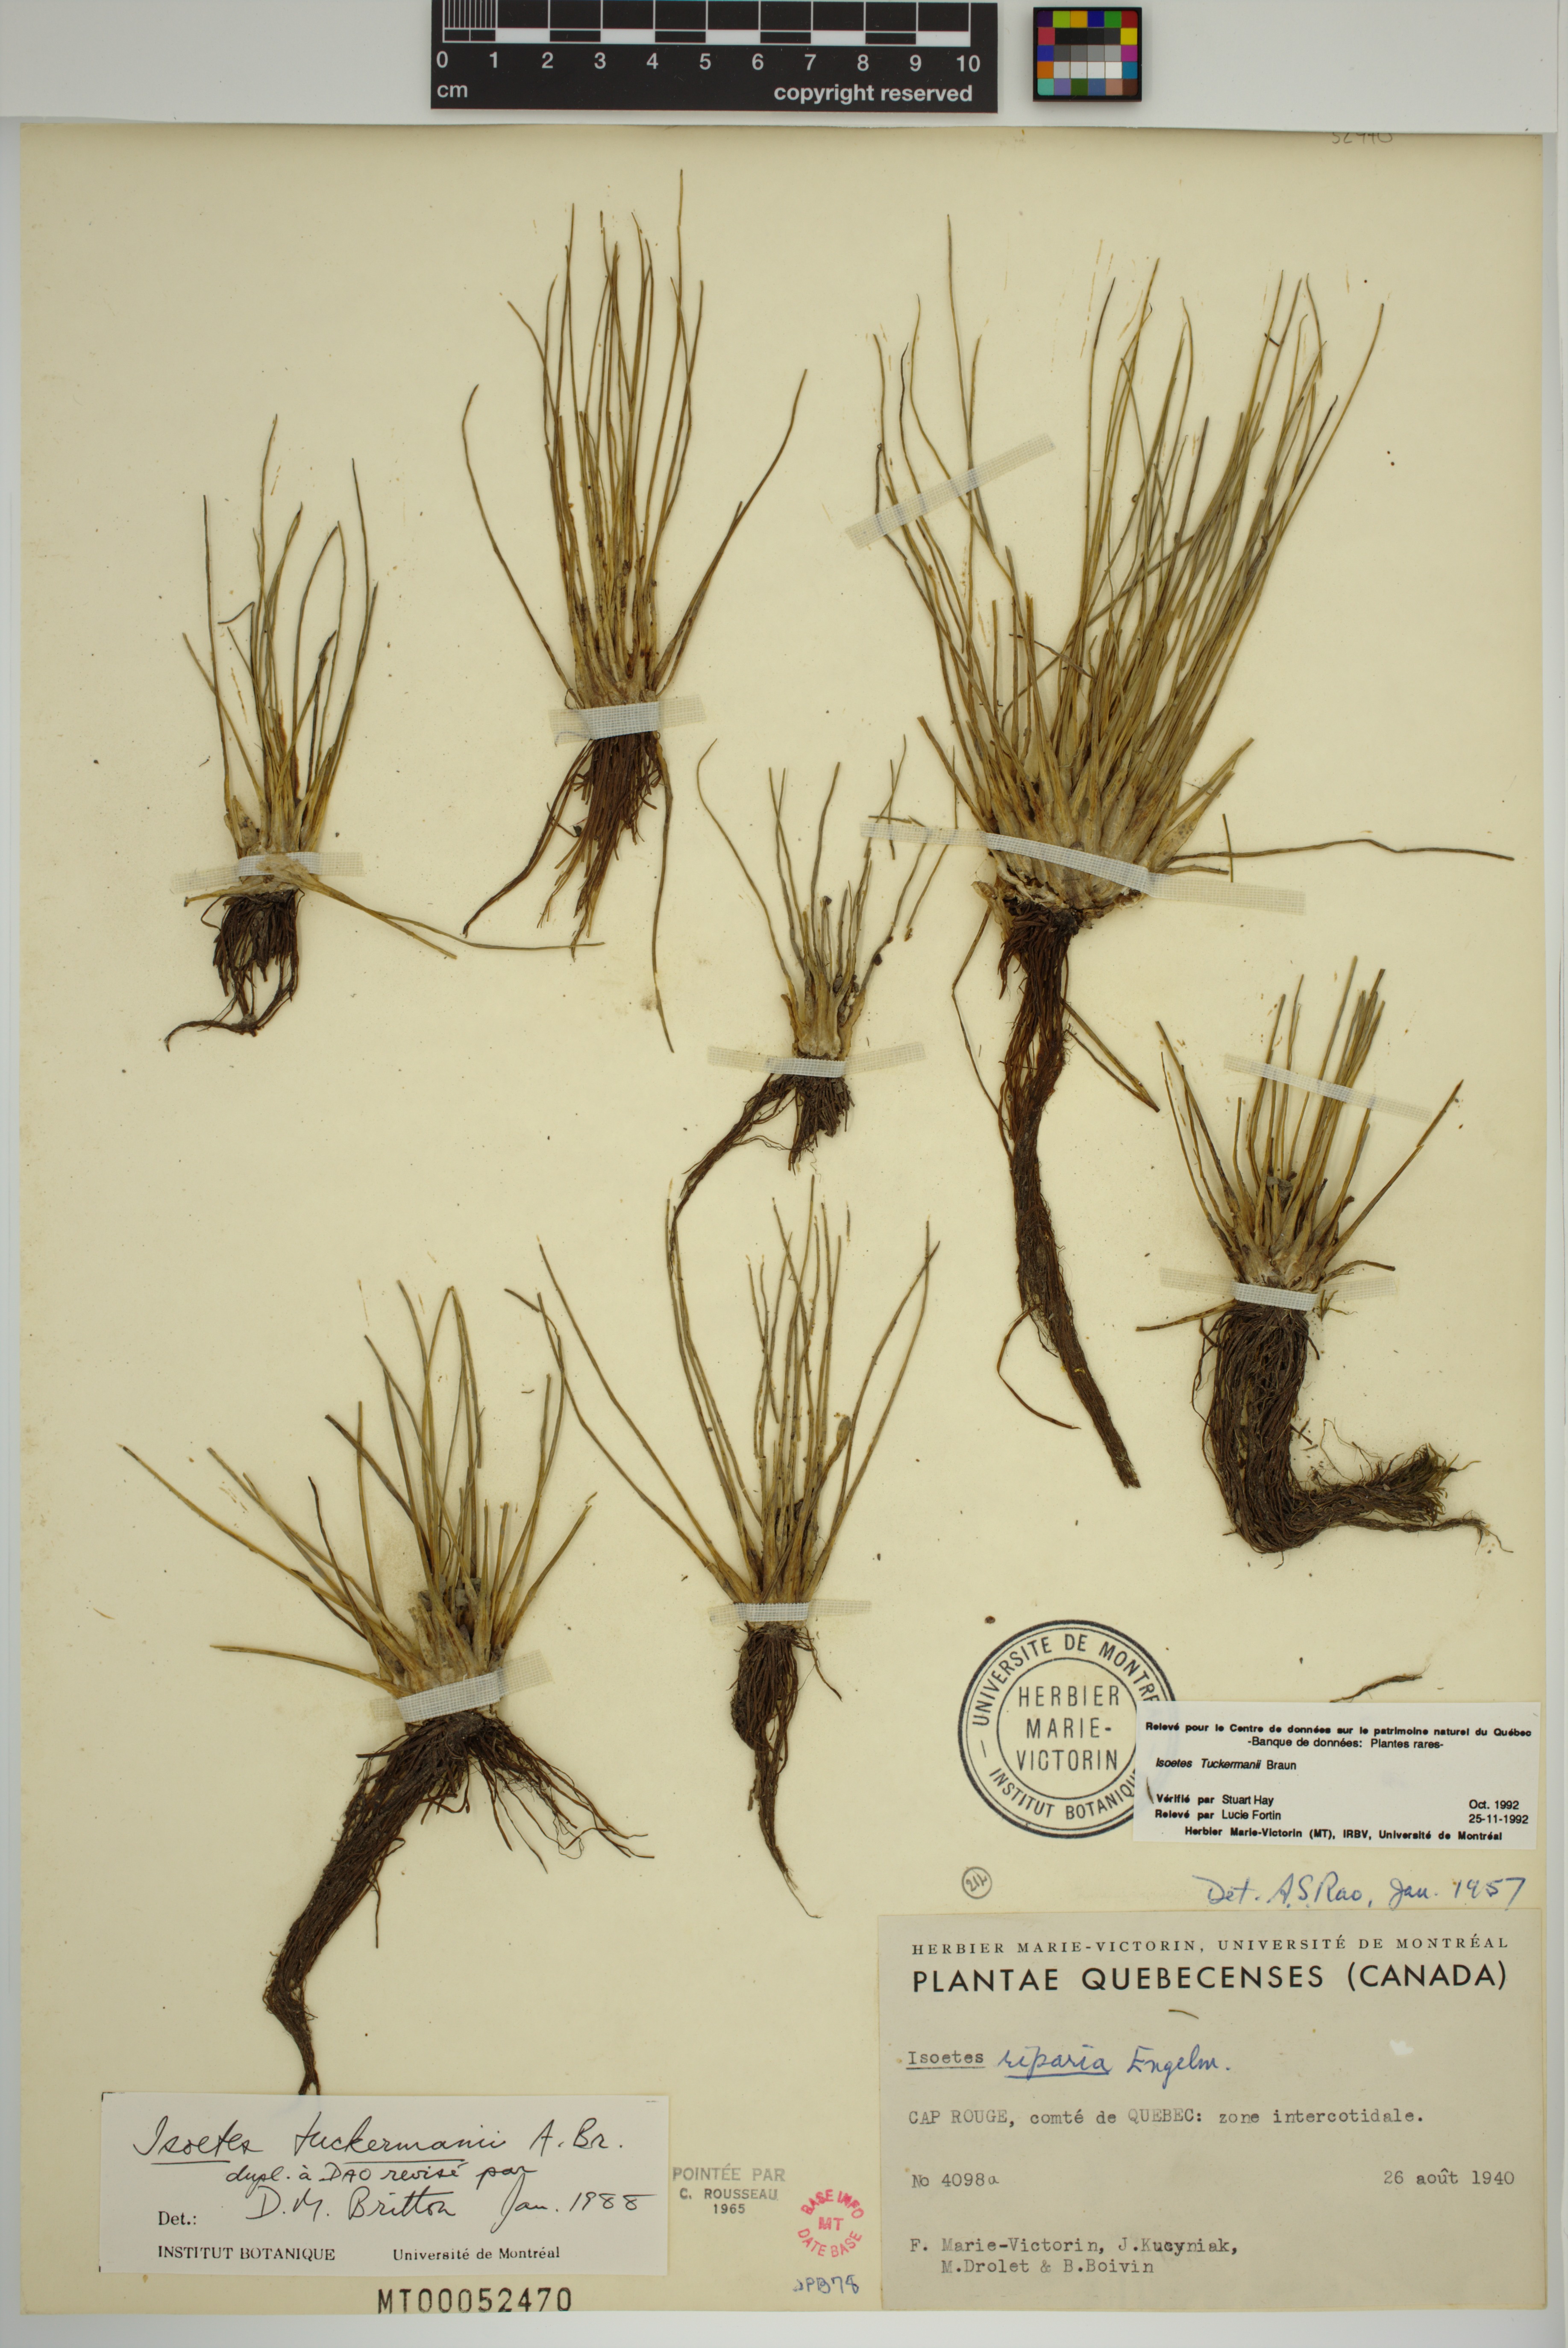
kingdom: Plantae
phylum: Tracheophyta
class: Lycopodiopsida
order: Isoetales
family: Isoetaceae
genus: Isoetes
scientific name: Isoetes laurentiana
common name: St. lawrence quillwort
